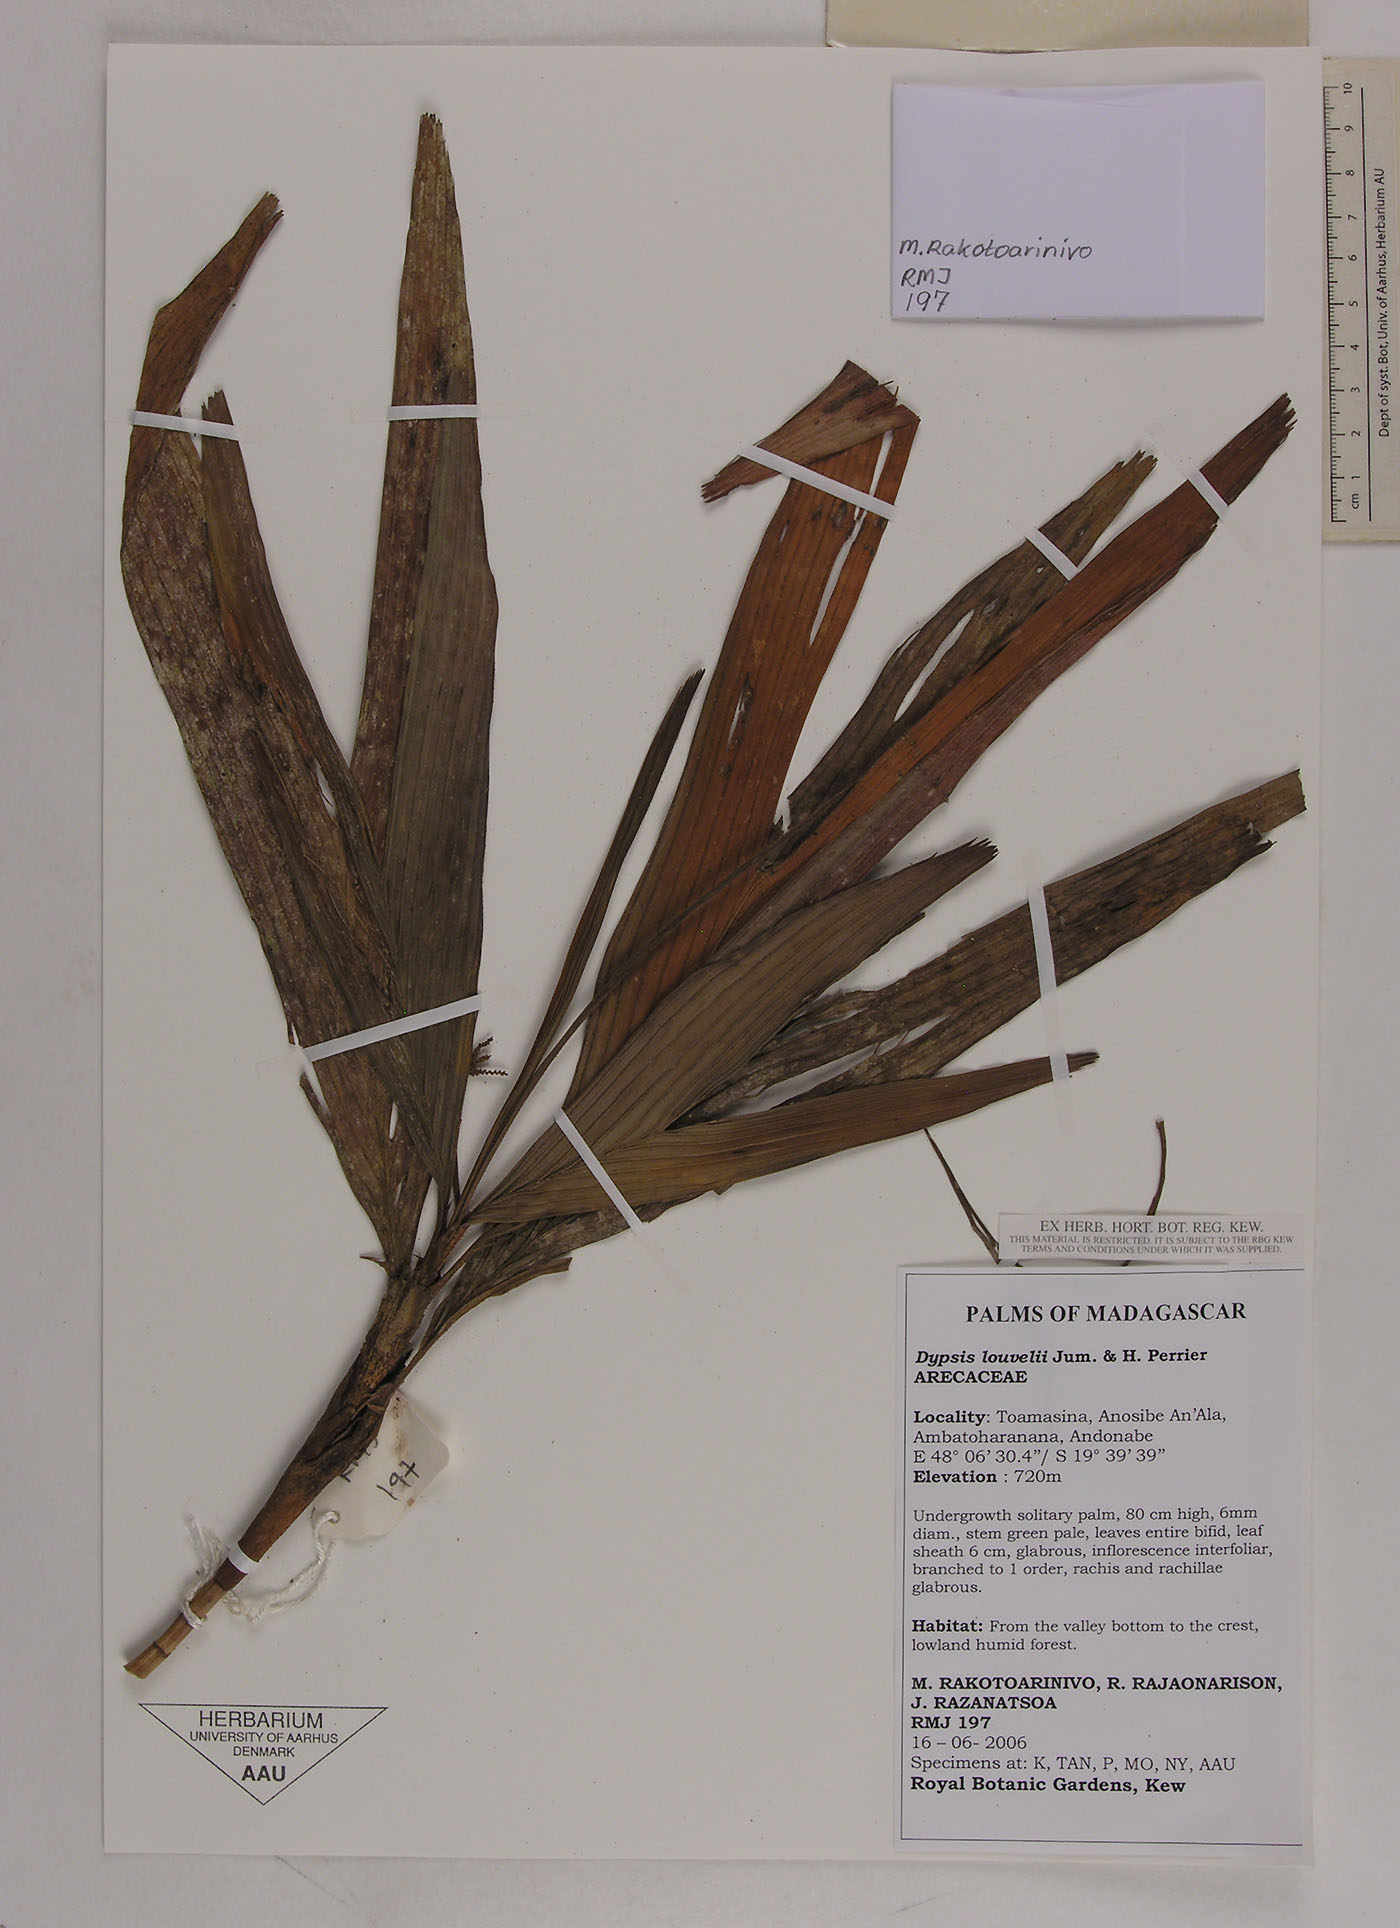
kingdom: Plantae
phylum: Tracheophyta
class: Liliopsida
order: Arecales
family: Arecaceae
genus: Dypsis
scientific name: Dypsis louvelii
